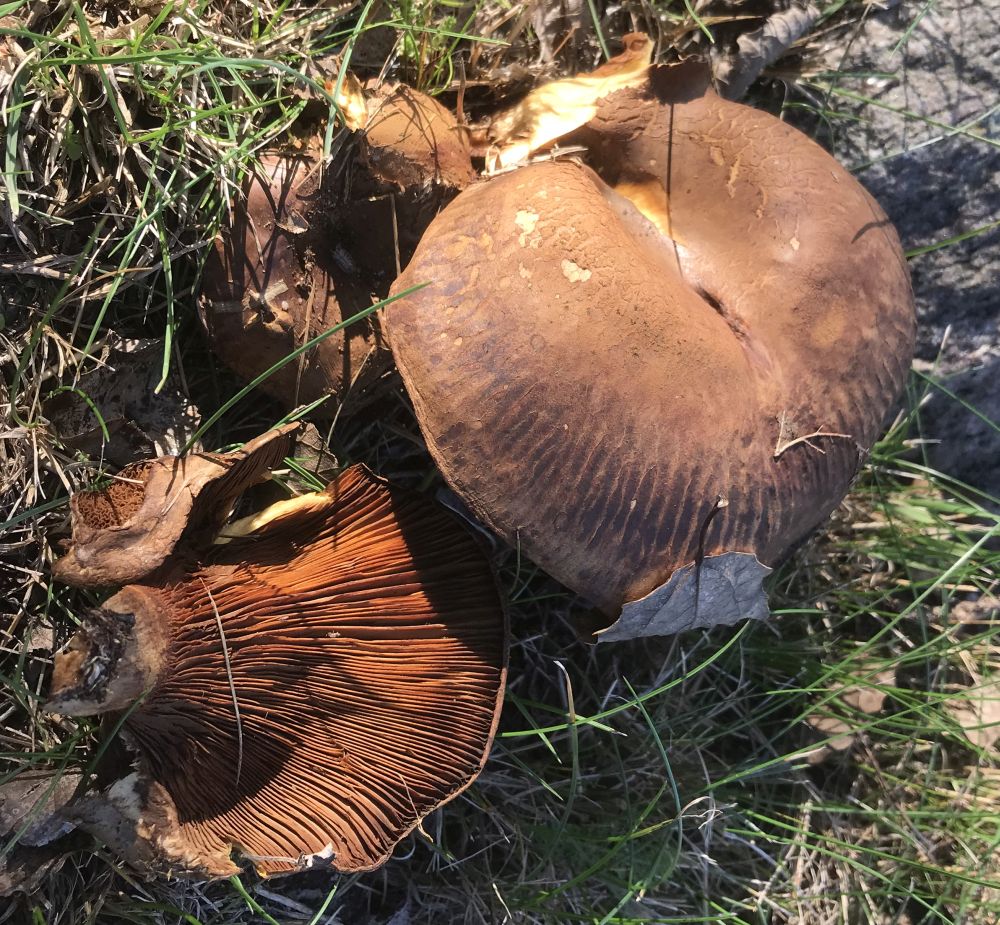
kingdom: Fungi
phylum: Basidiomycota
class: Agaricomycetes
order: Boletales
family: Paxillaceae
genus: Paxillus
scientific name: Paxillus obscurisporus
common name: mahognisporet netbladhat
